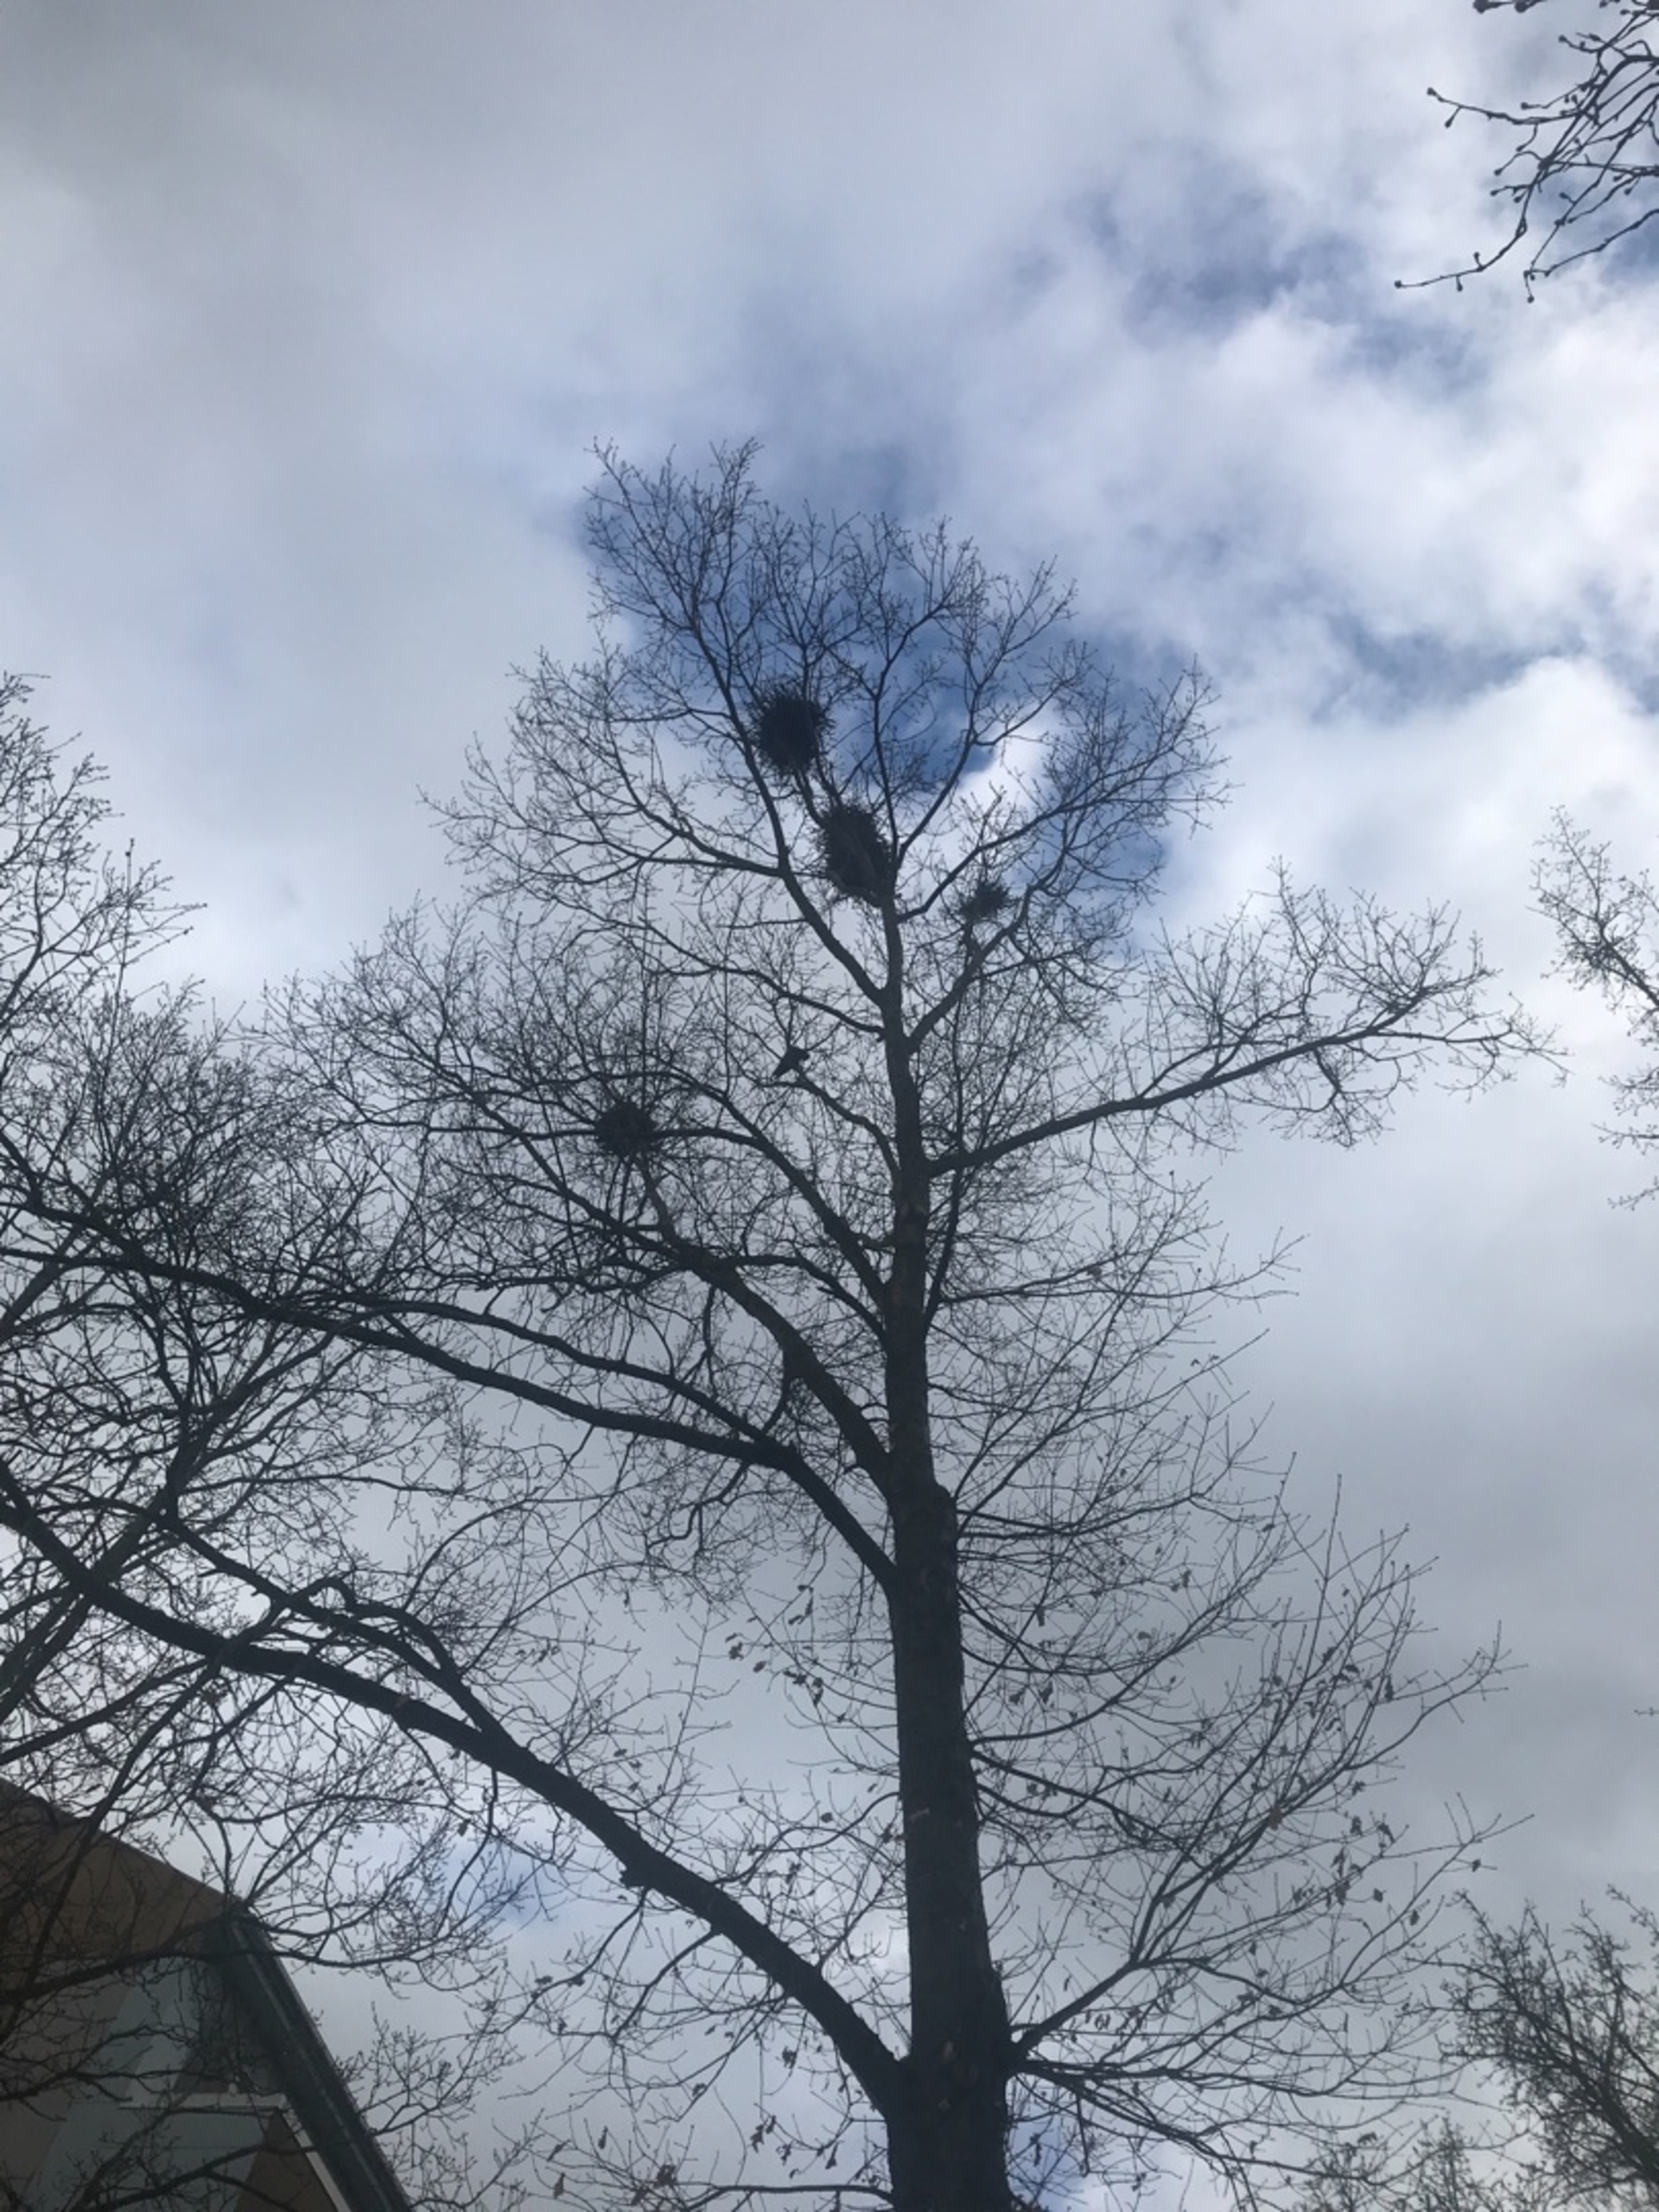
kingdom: Animalia
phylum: Chordata
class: Aves
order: Passeriformes
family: Corvidae
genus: Corvus
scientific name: Corvus frugilegus
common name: Råge
